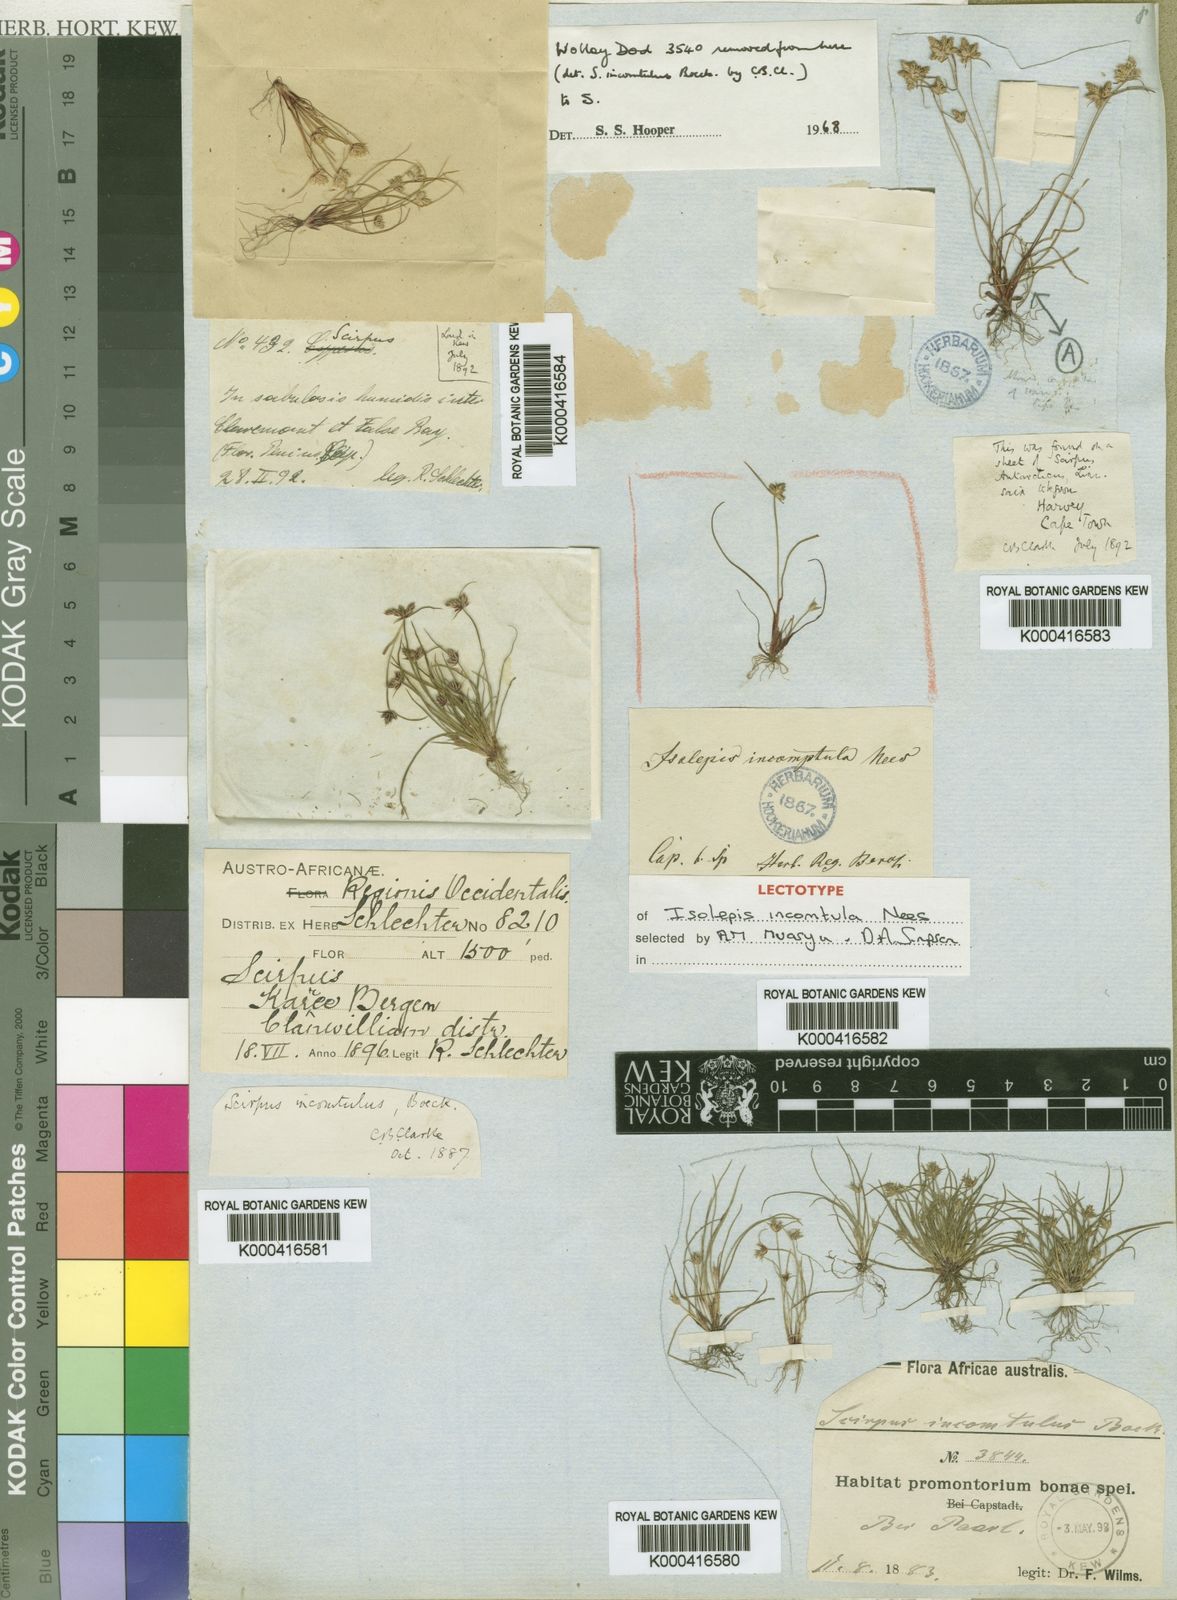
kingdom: Plantae
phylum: Tracheophyta
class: Liliopsida
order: Poales
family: Cyperaceae
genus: Ficinia
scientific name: Ficinia incomtula
